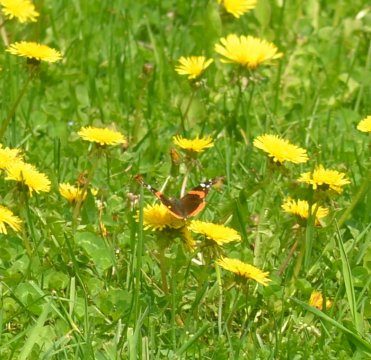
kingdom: Animalia
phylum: Arthropoda
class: Insecta
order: Lepidoptera
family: Nymphalidae
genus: Vanessa
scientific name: Vanessa atalanta
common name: Red Admiral
